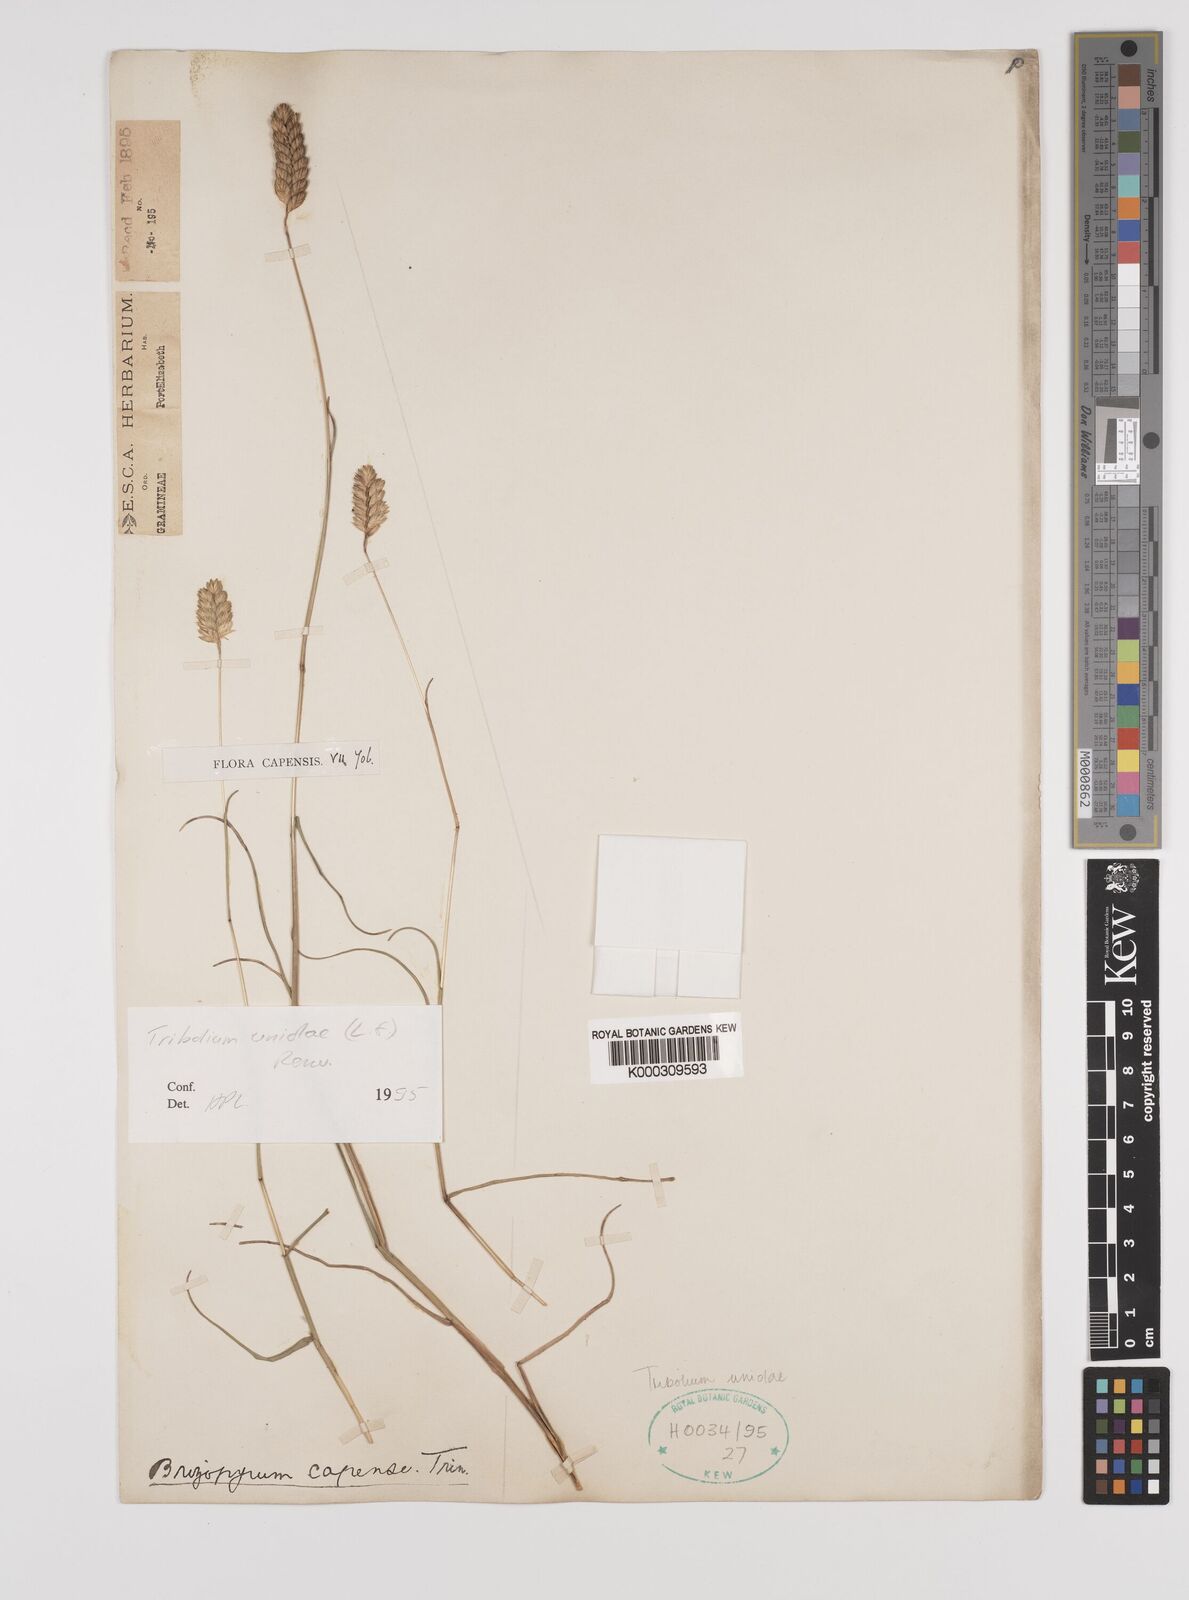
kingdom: Plantae
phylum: Tracheophyta
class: Liliopsida
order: Poales
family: Poaceae
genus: Tribolium
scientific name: Tribolium uniolae
